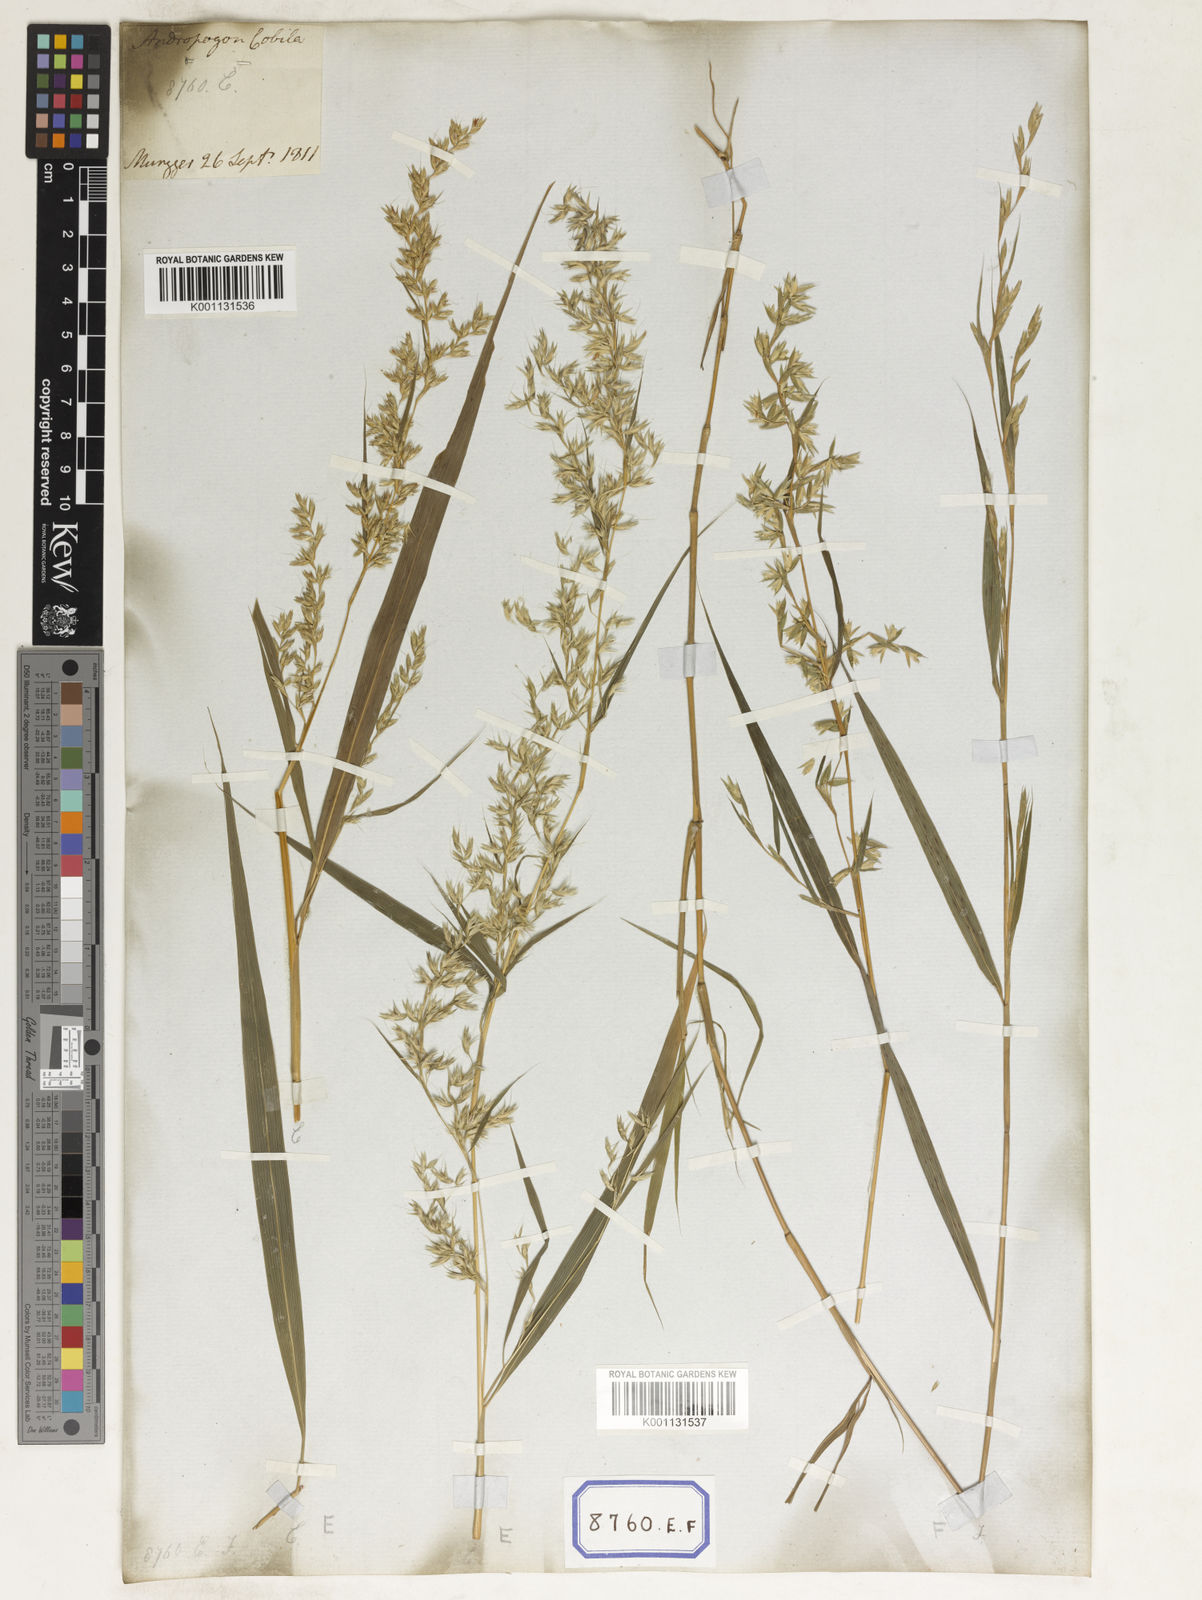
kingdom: Plantae
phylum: Tracheophyta
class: Liliopsida
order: Poales
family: Poaceae
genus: Apluda
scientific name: Apluda
